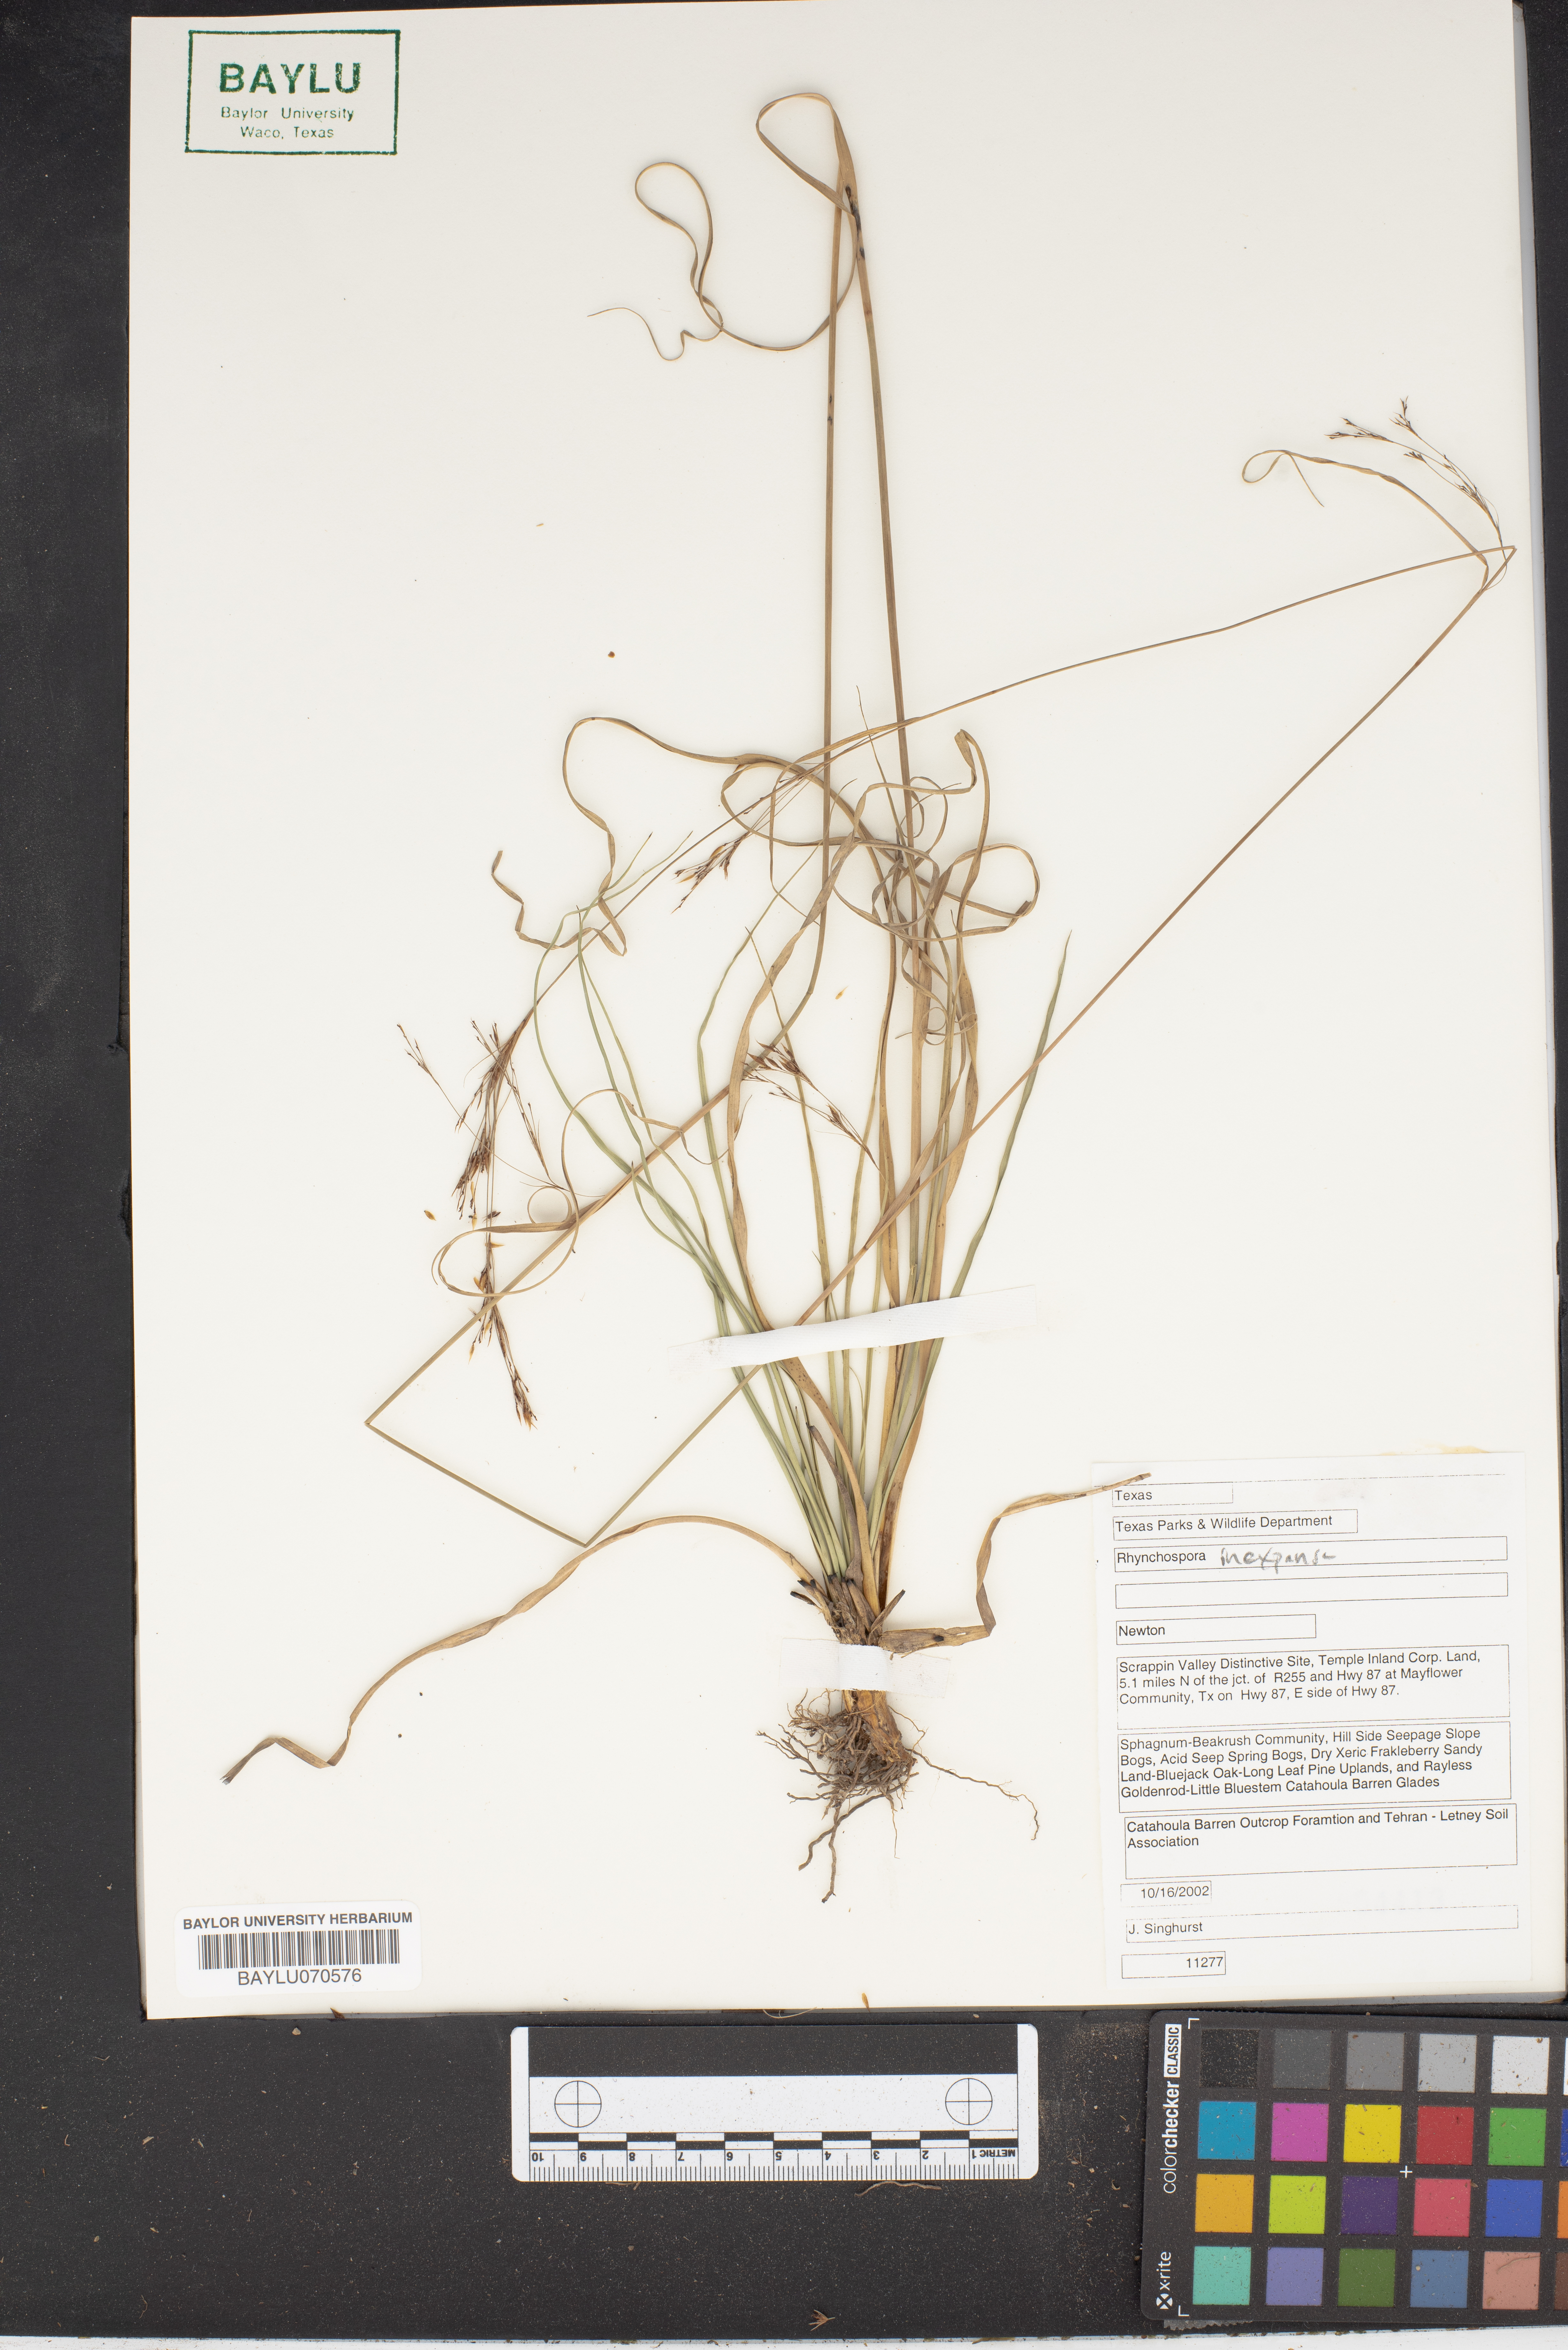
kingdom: Plantae
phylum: Tracheophyta
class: Liliopsida
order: Poales
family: Cyperaceae
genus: Rhynchospora
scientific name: Rhynchospora inexpansa
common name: Nodding beaksedge
